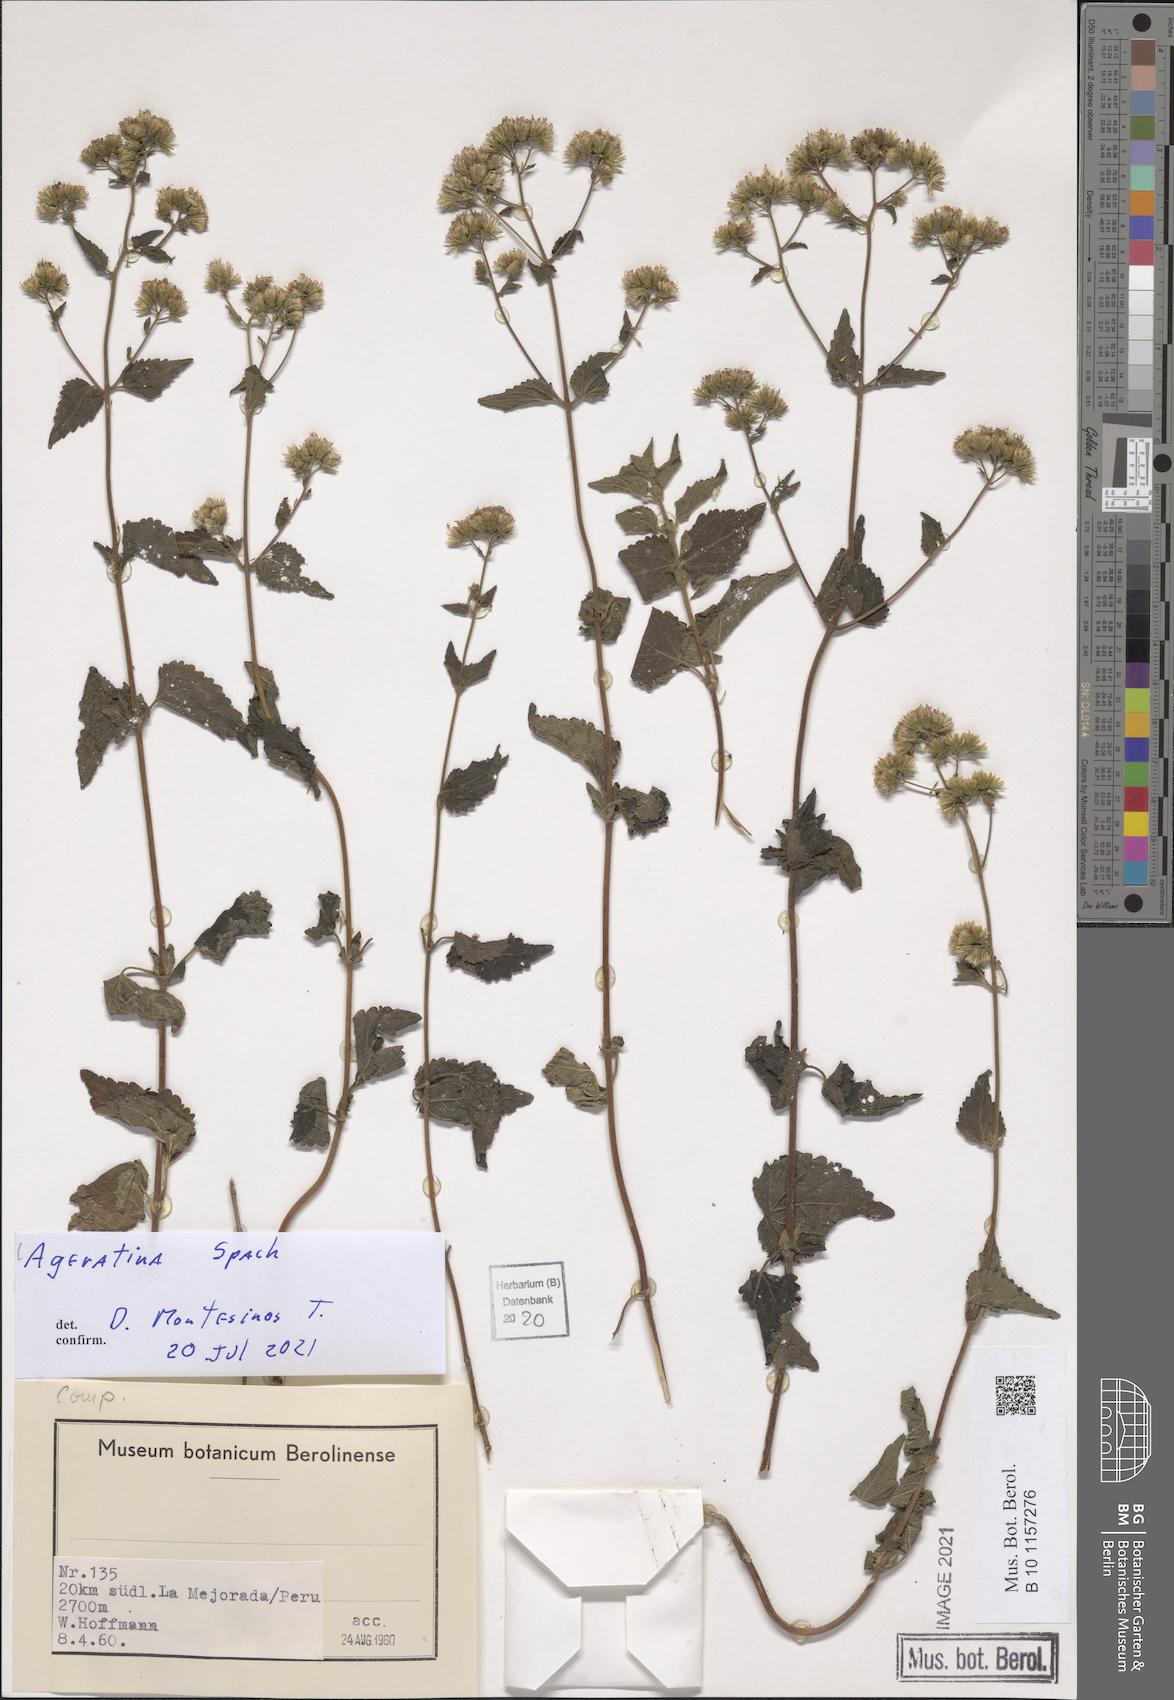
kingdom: Plantae
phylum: Tracheophyta
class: Magnoliopsida
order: Asterales
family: Asteraceae
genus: Ageratina
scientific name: Ageratina
